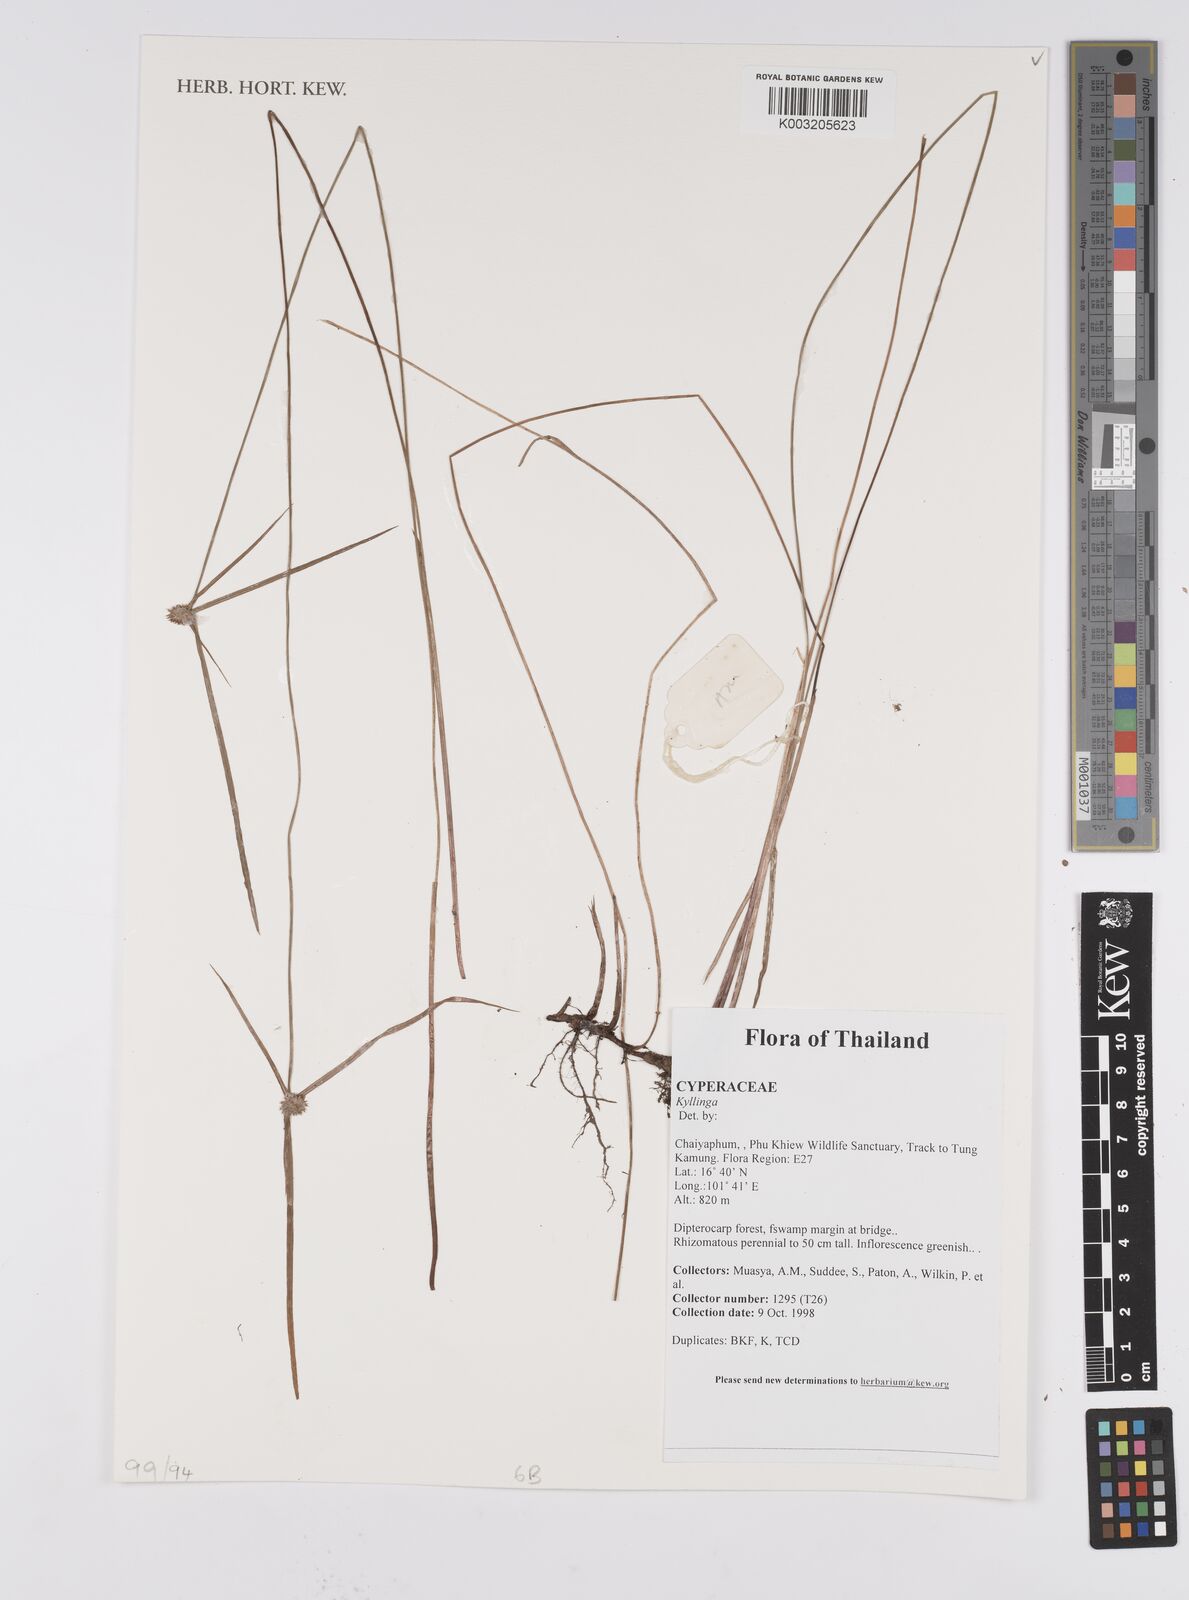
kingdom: Plantae
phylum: Tracheophyta
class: Liliopsida
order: Poales
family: Cyperaceae
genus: Cyperus
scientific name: Cyperus
